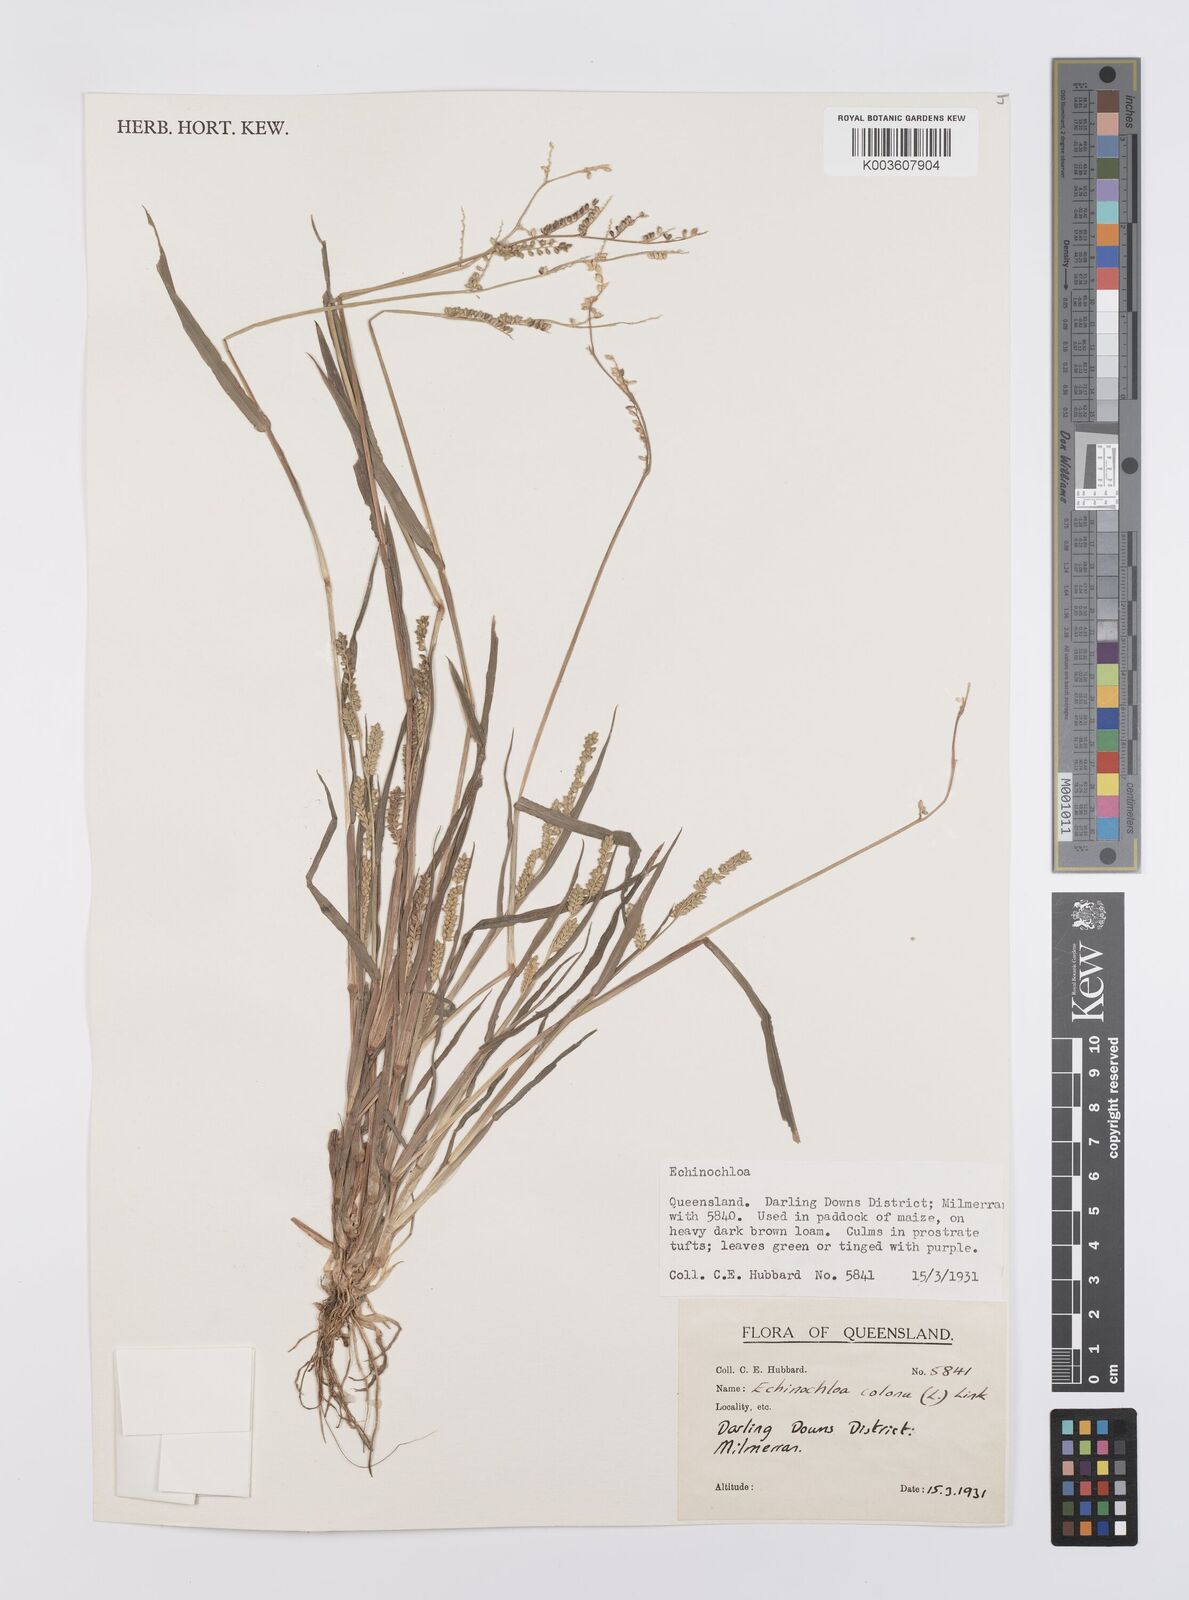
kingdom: Plantae
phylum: Tracheophyta
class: Liliopsida
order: Poales
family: Poaceae
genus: Echinochloa
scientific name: Echinochloa colonum
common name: Jungle rice
